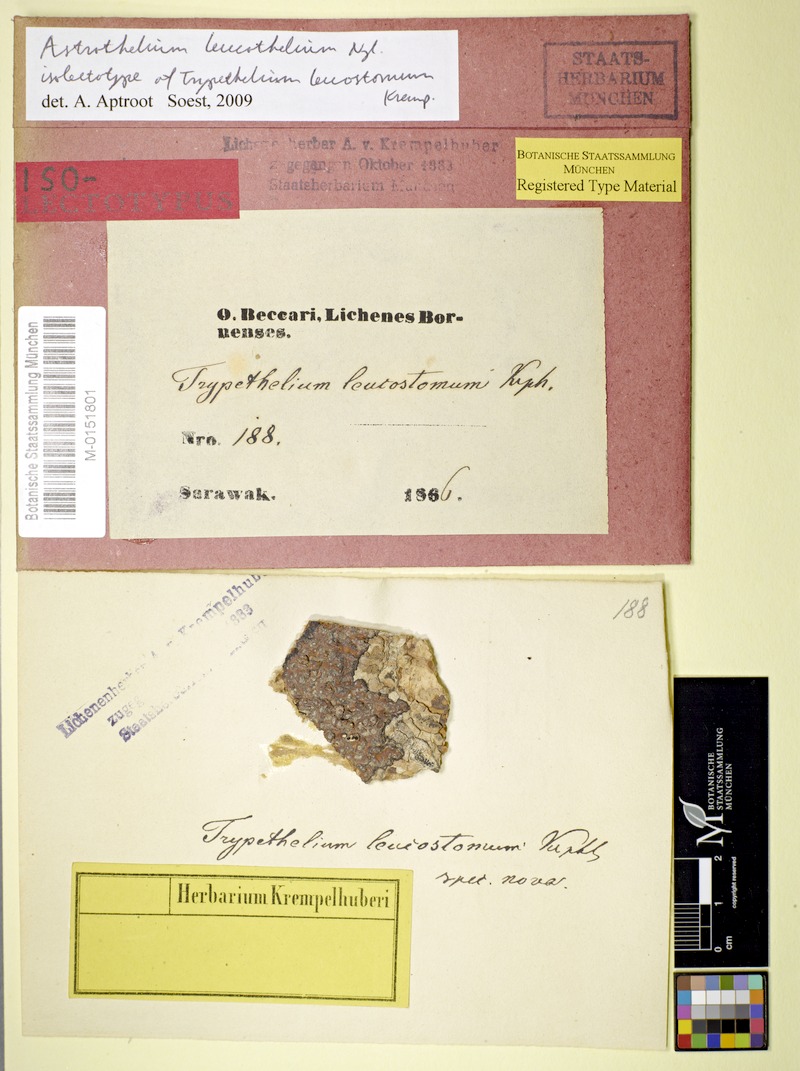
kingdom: Fungi
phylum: Ascomycota
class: Dothideomycetes
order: Trypetheliales
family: Trypetheliaceae
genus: Astrothelium
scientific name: Astrothelium leucothelium
